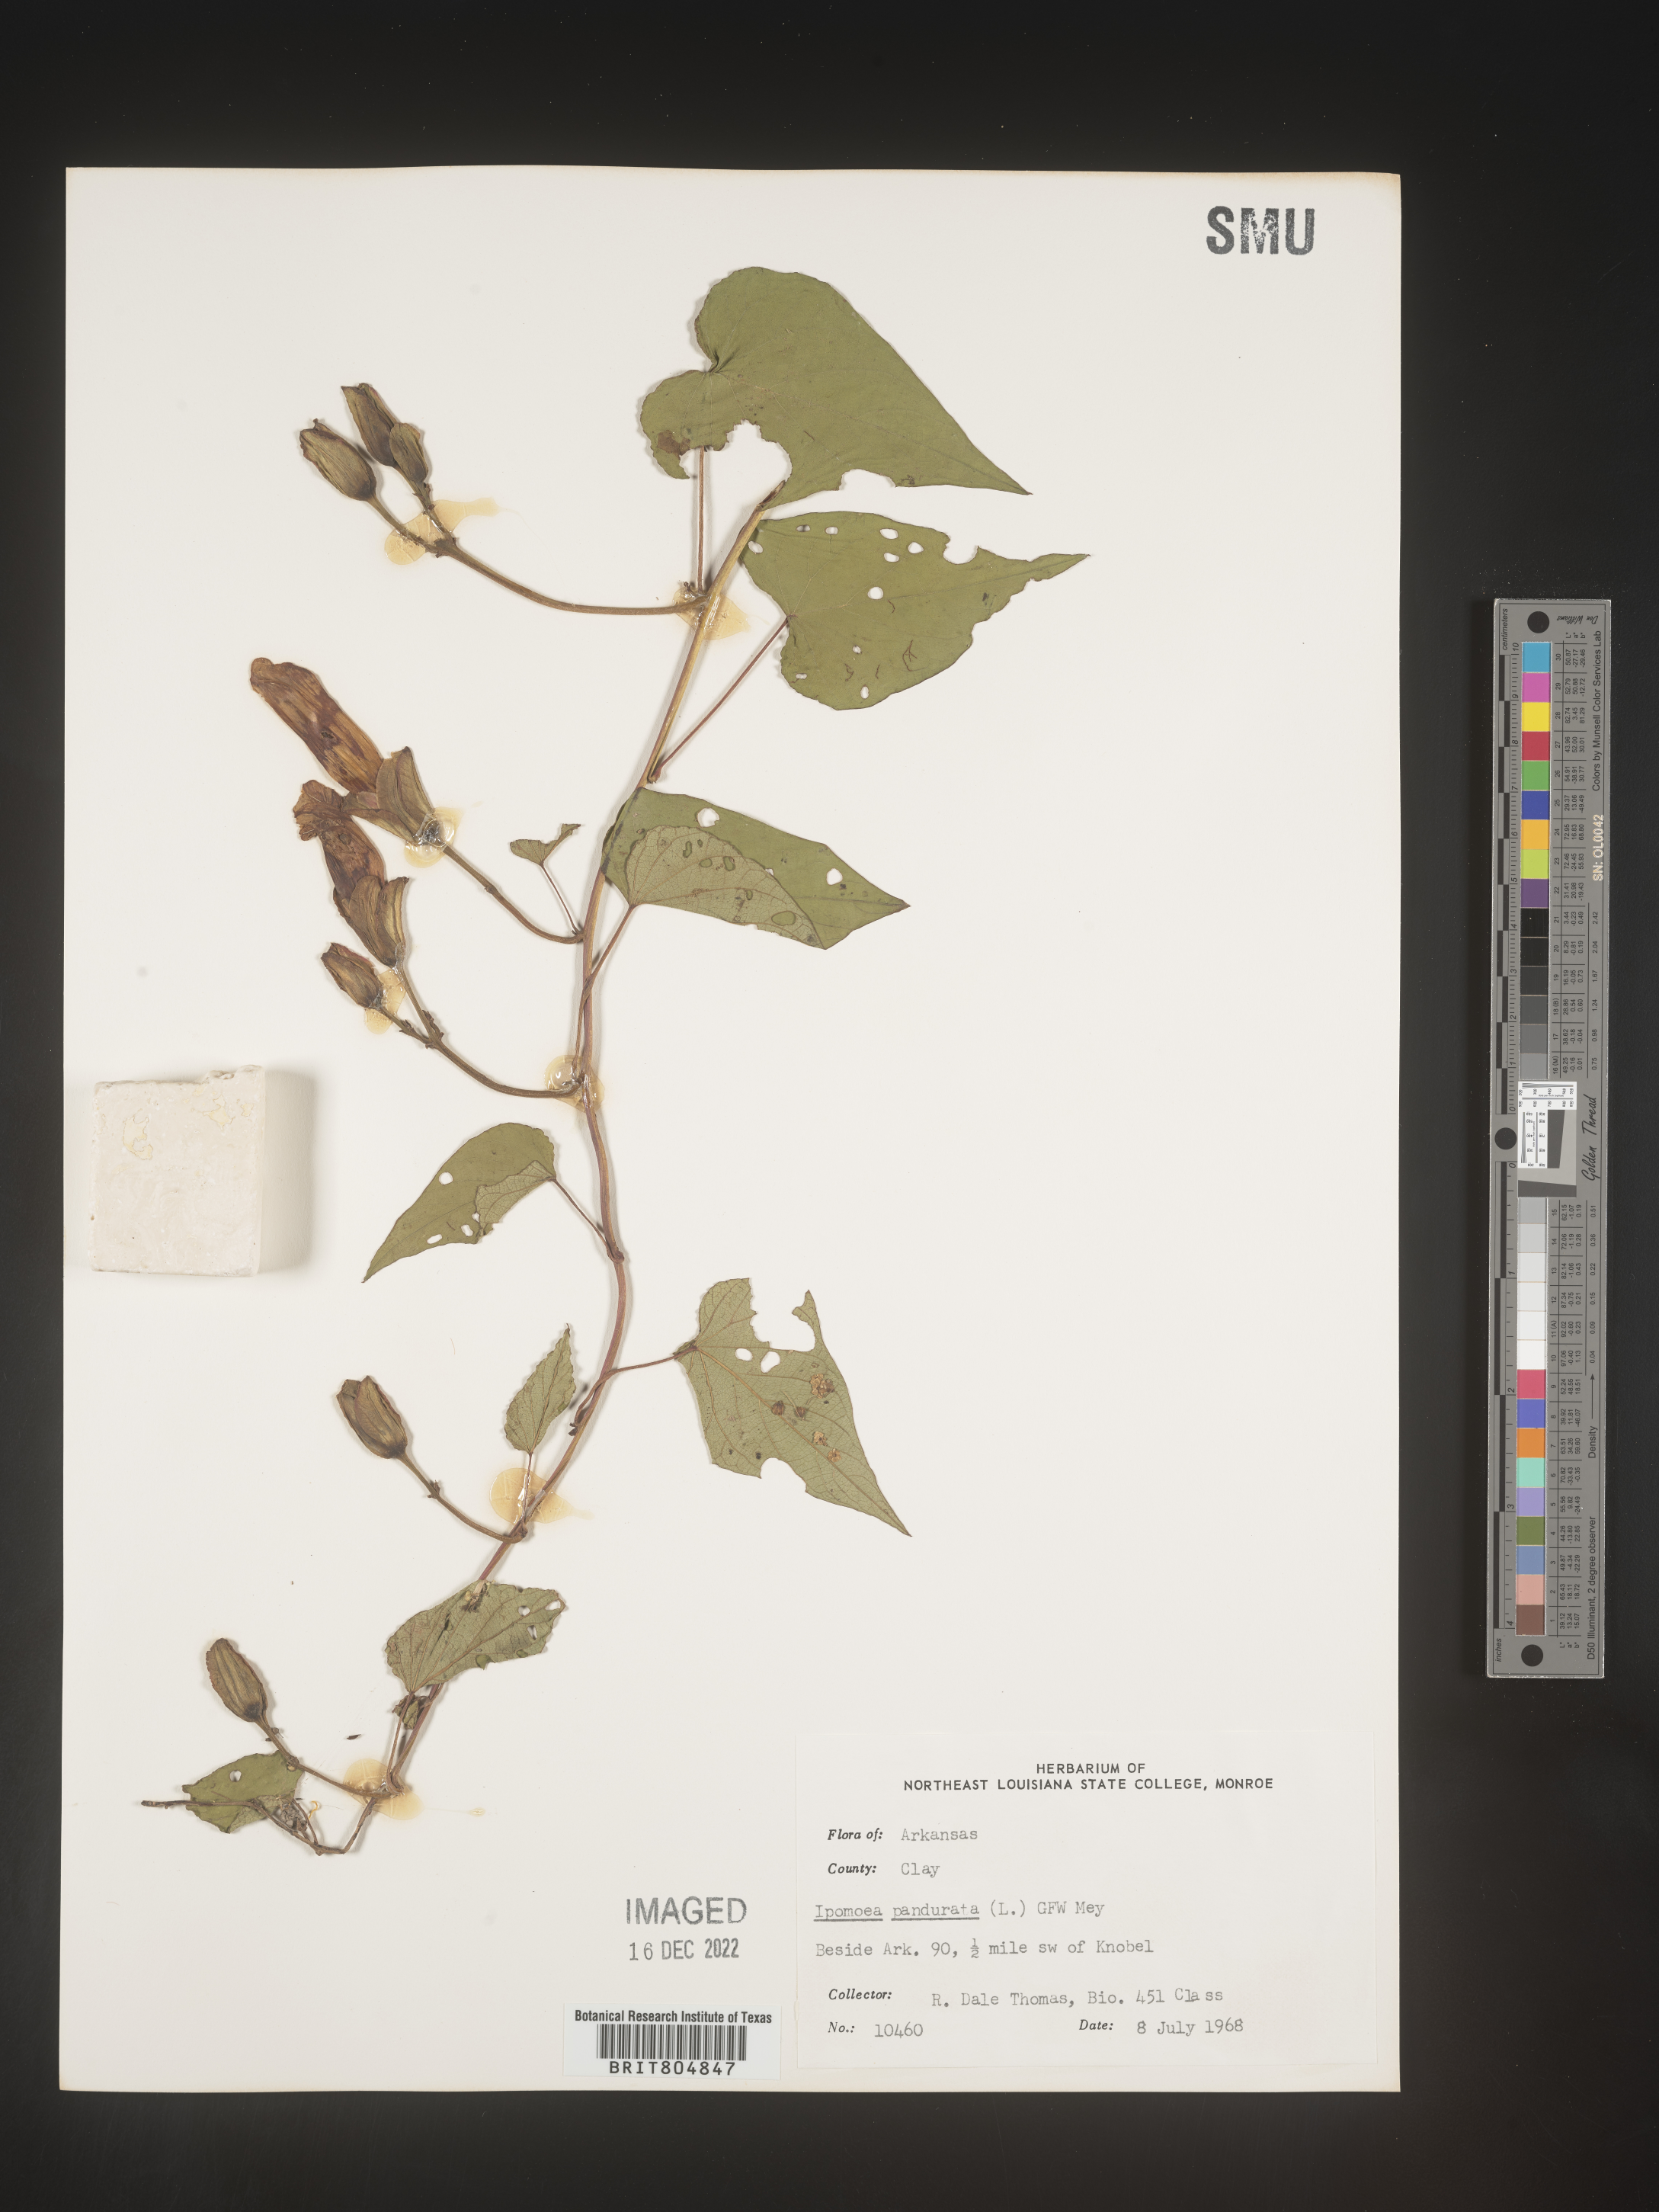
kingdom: Plantae
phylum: Tracheophyta
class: Magnoliopsida
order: Solanales
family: Convolvulaceae
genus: Ipomoea
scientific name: Ipomoea pandurata
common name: Man-of-the-earth
